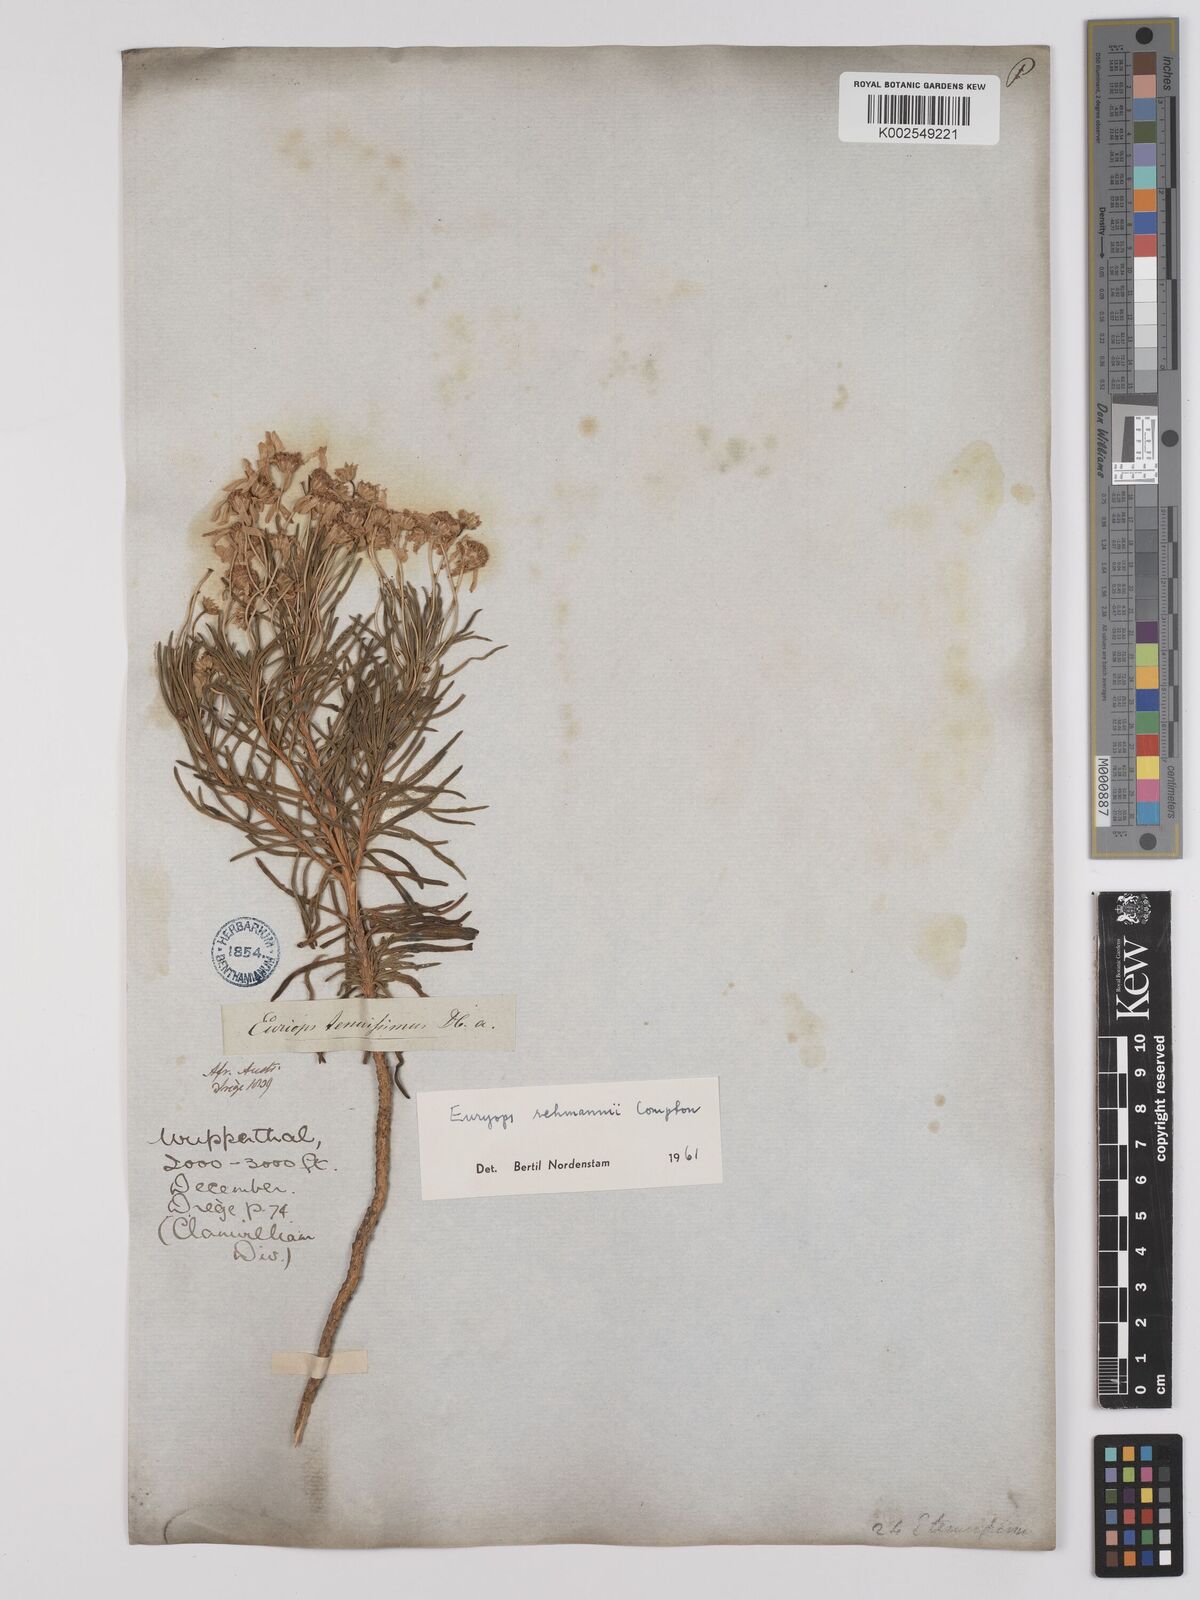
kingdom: Plantae
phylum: Tracheophyta
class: Magnoliopsida
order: Asterales
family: Asteraceae
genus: Euryops
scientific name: Euryops rehmannii
